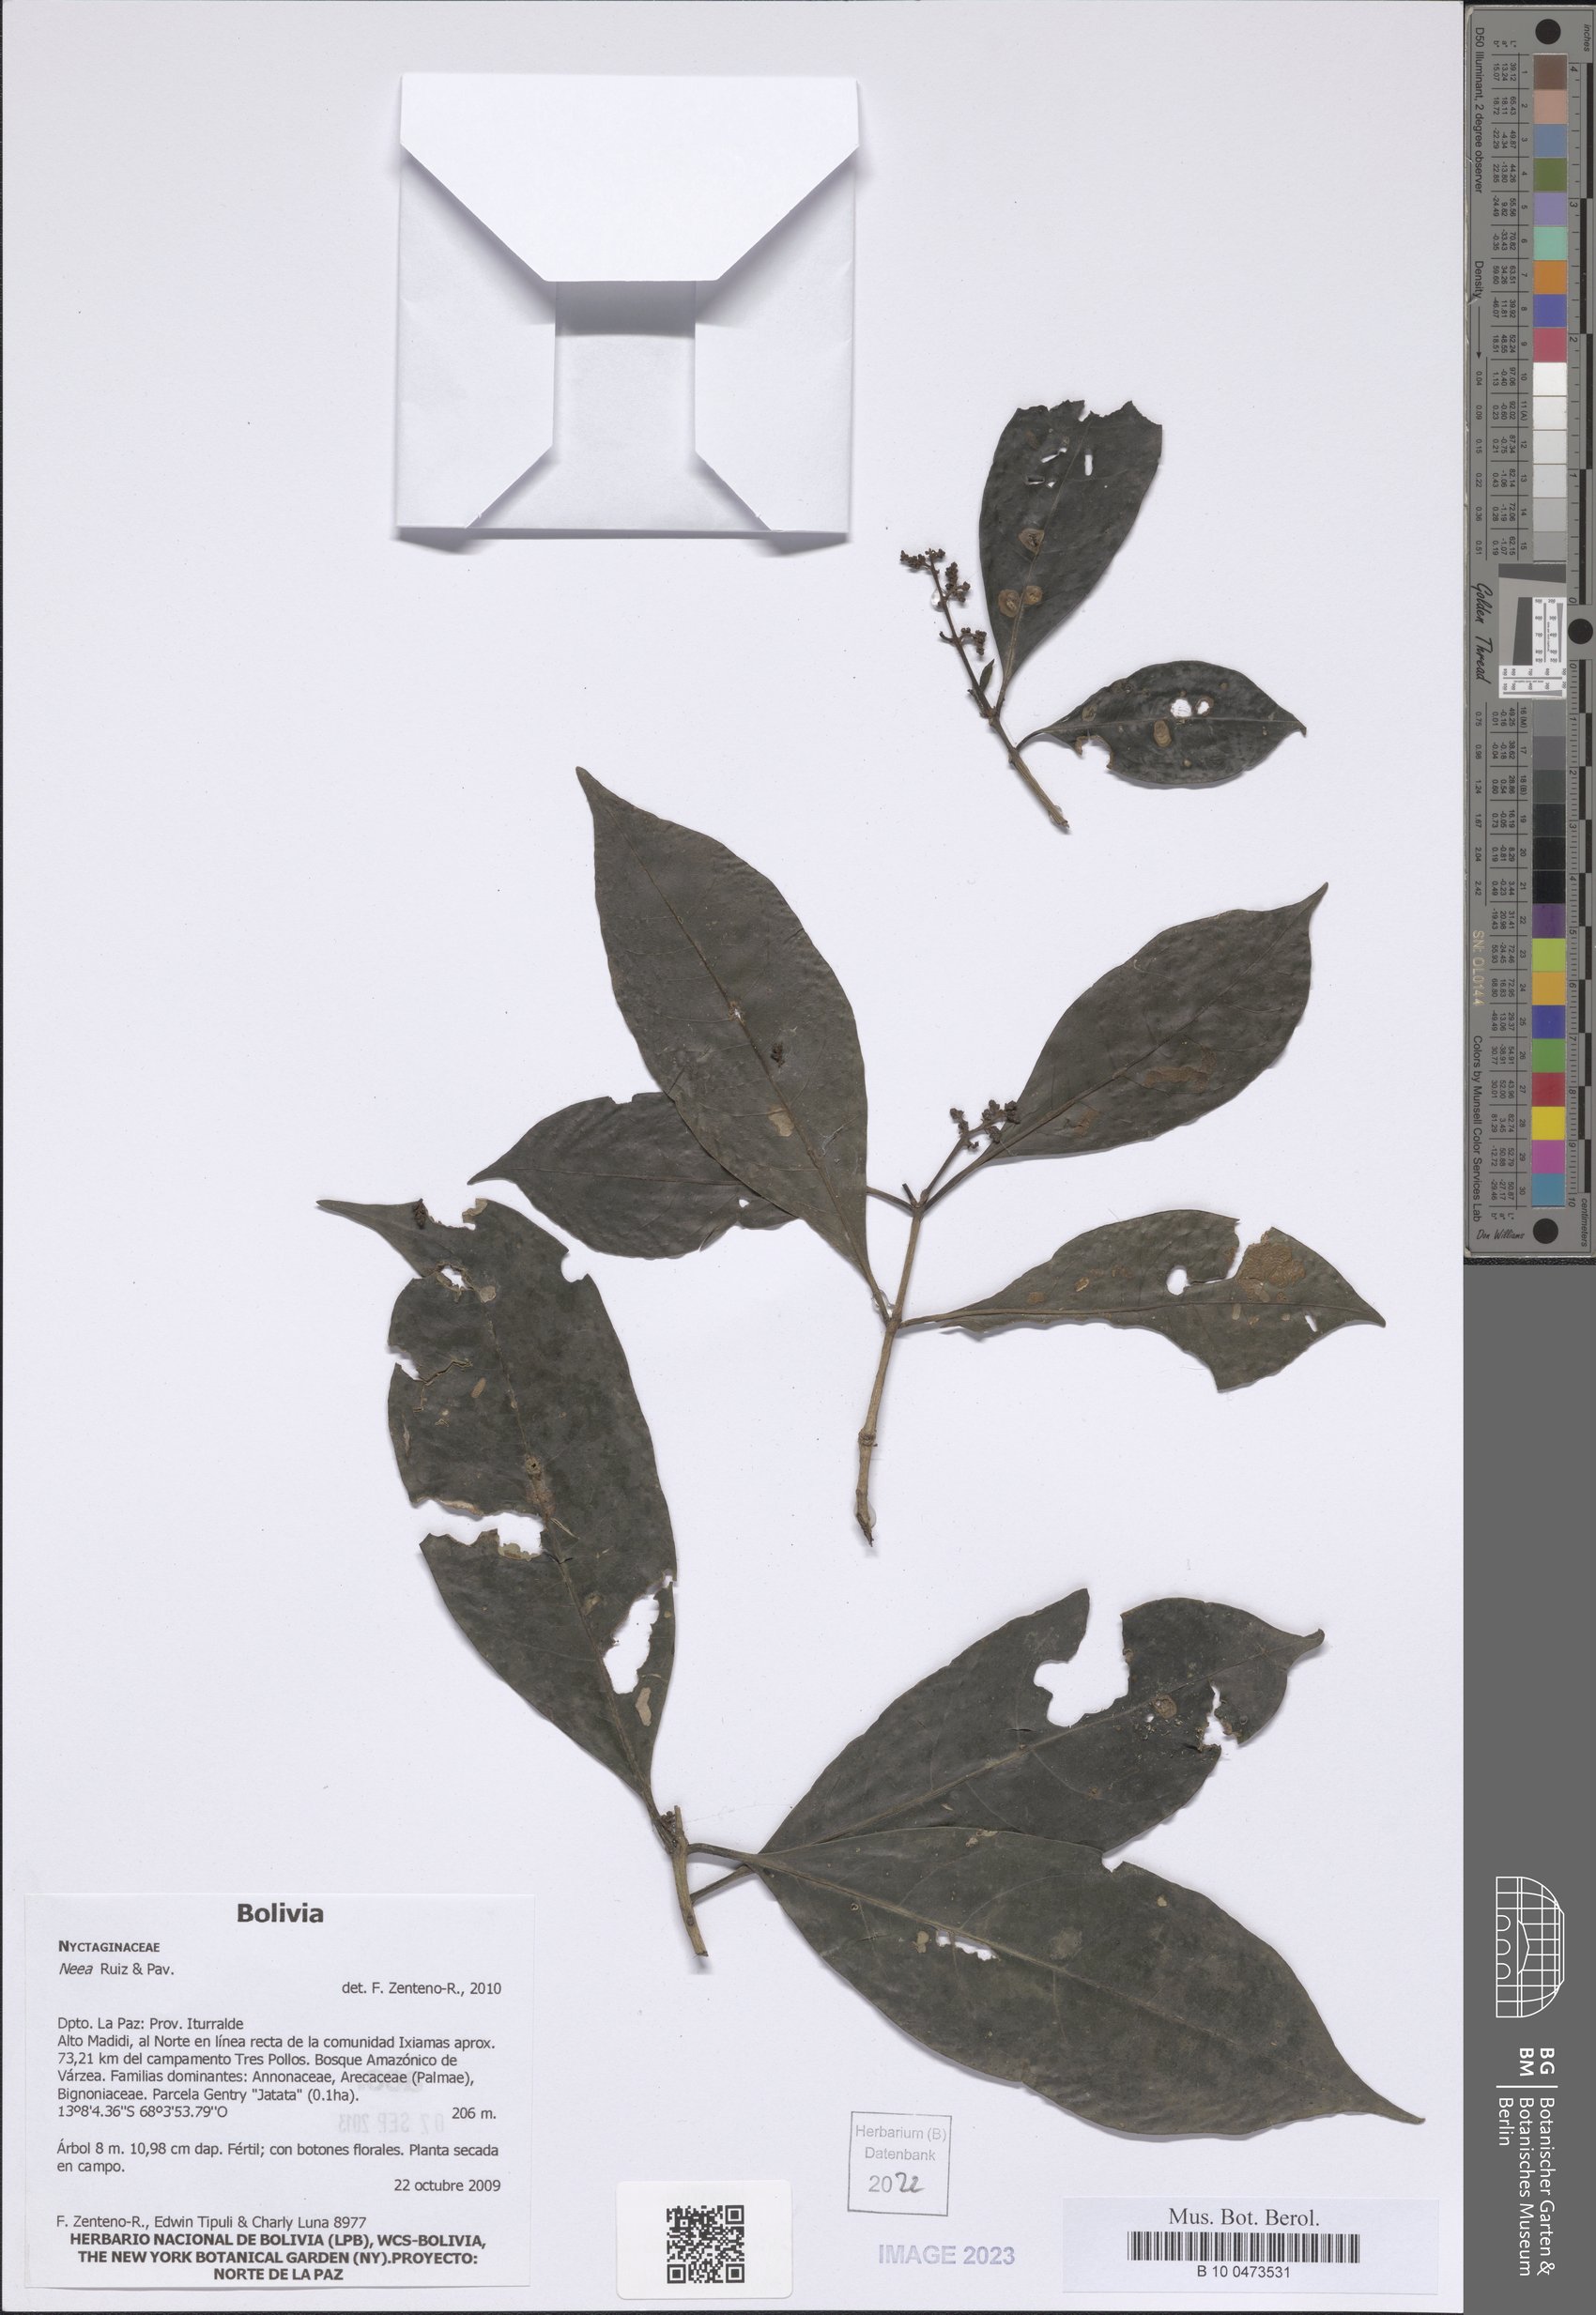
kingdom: Plantae
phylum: Tracheophyta
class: Magnoliopsida
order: Caryophyllales
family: Nyctaginaceae
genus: Neea
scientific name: Neea
